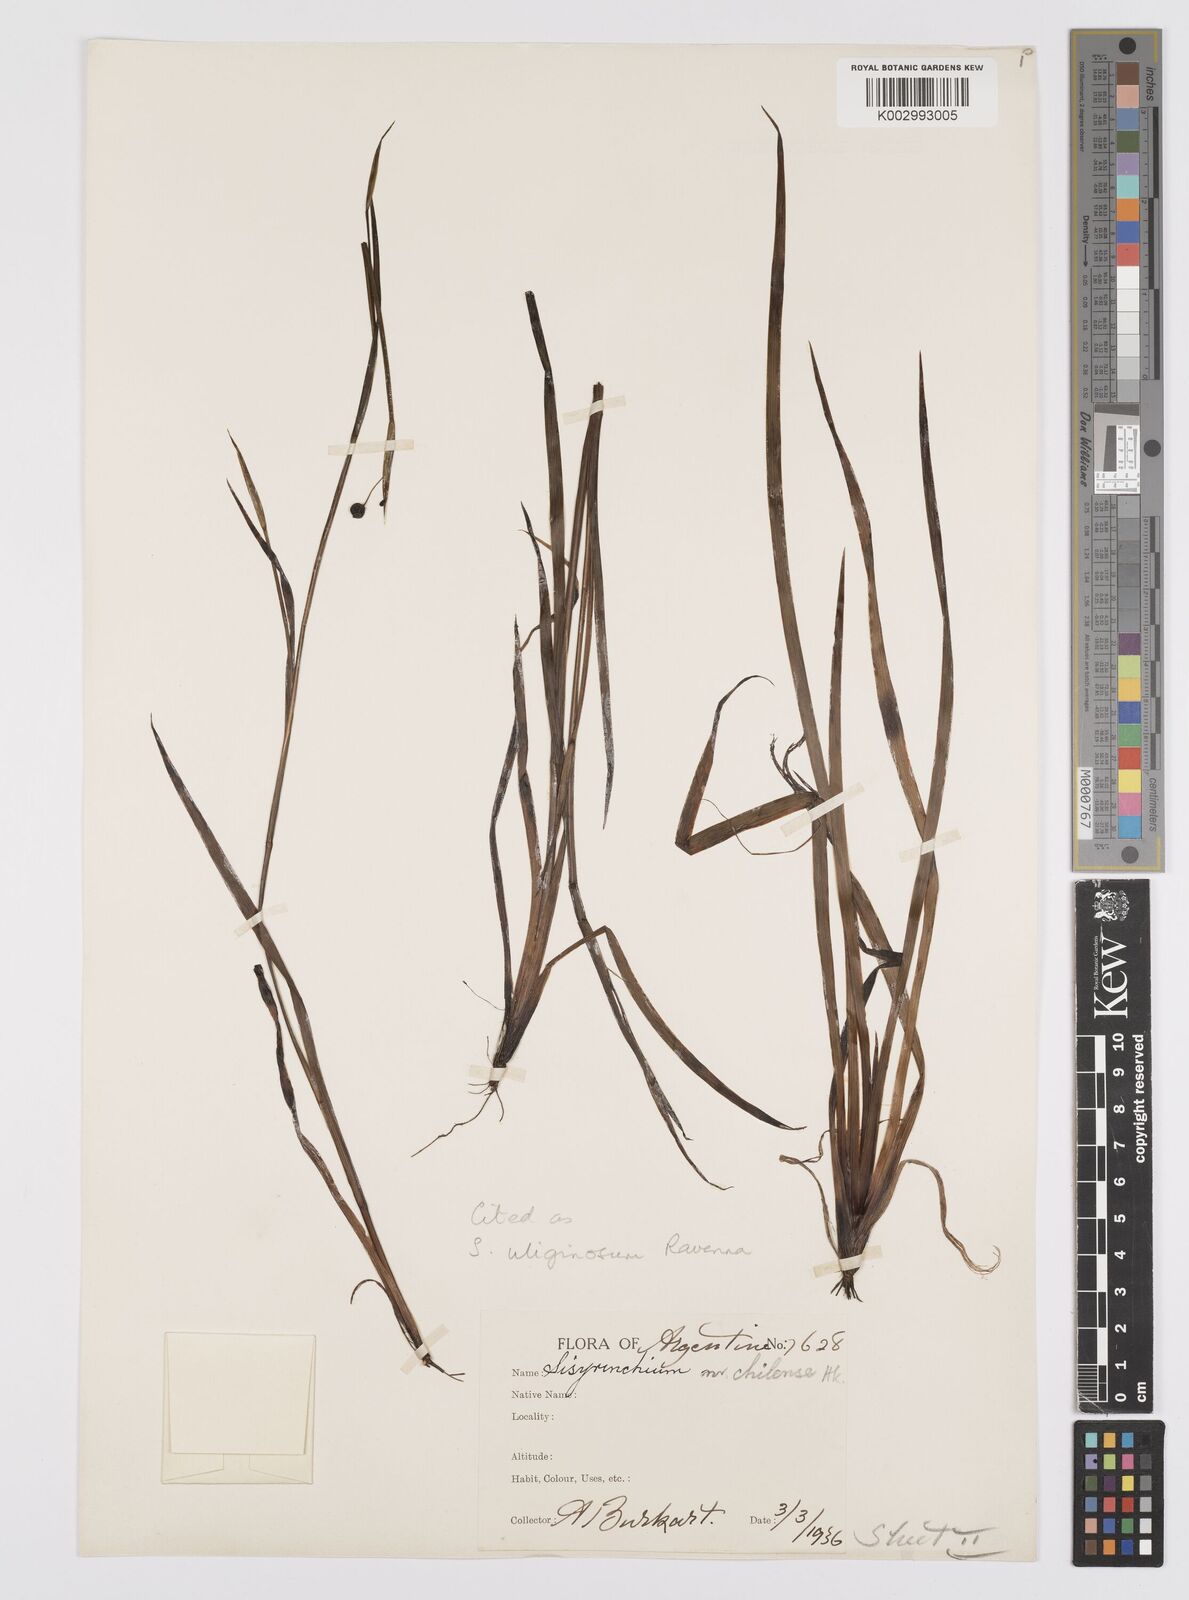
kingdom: Plantae
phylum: Tracheophyta
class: Liliopsida
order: Asparagales
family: Iridaceae
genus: Sisyrinchium
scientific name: Sisyrinchium uliginosum
